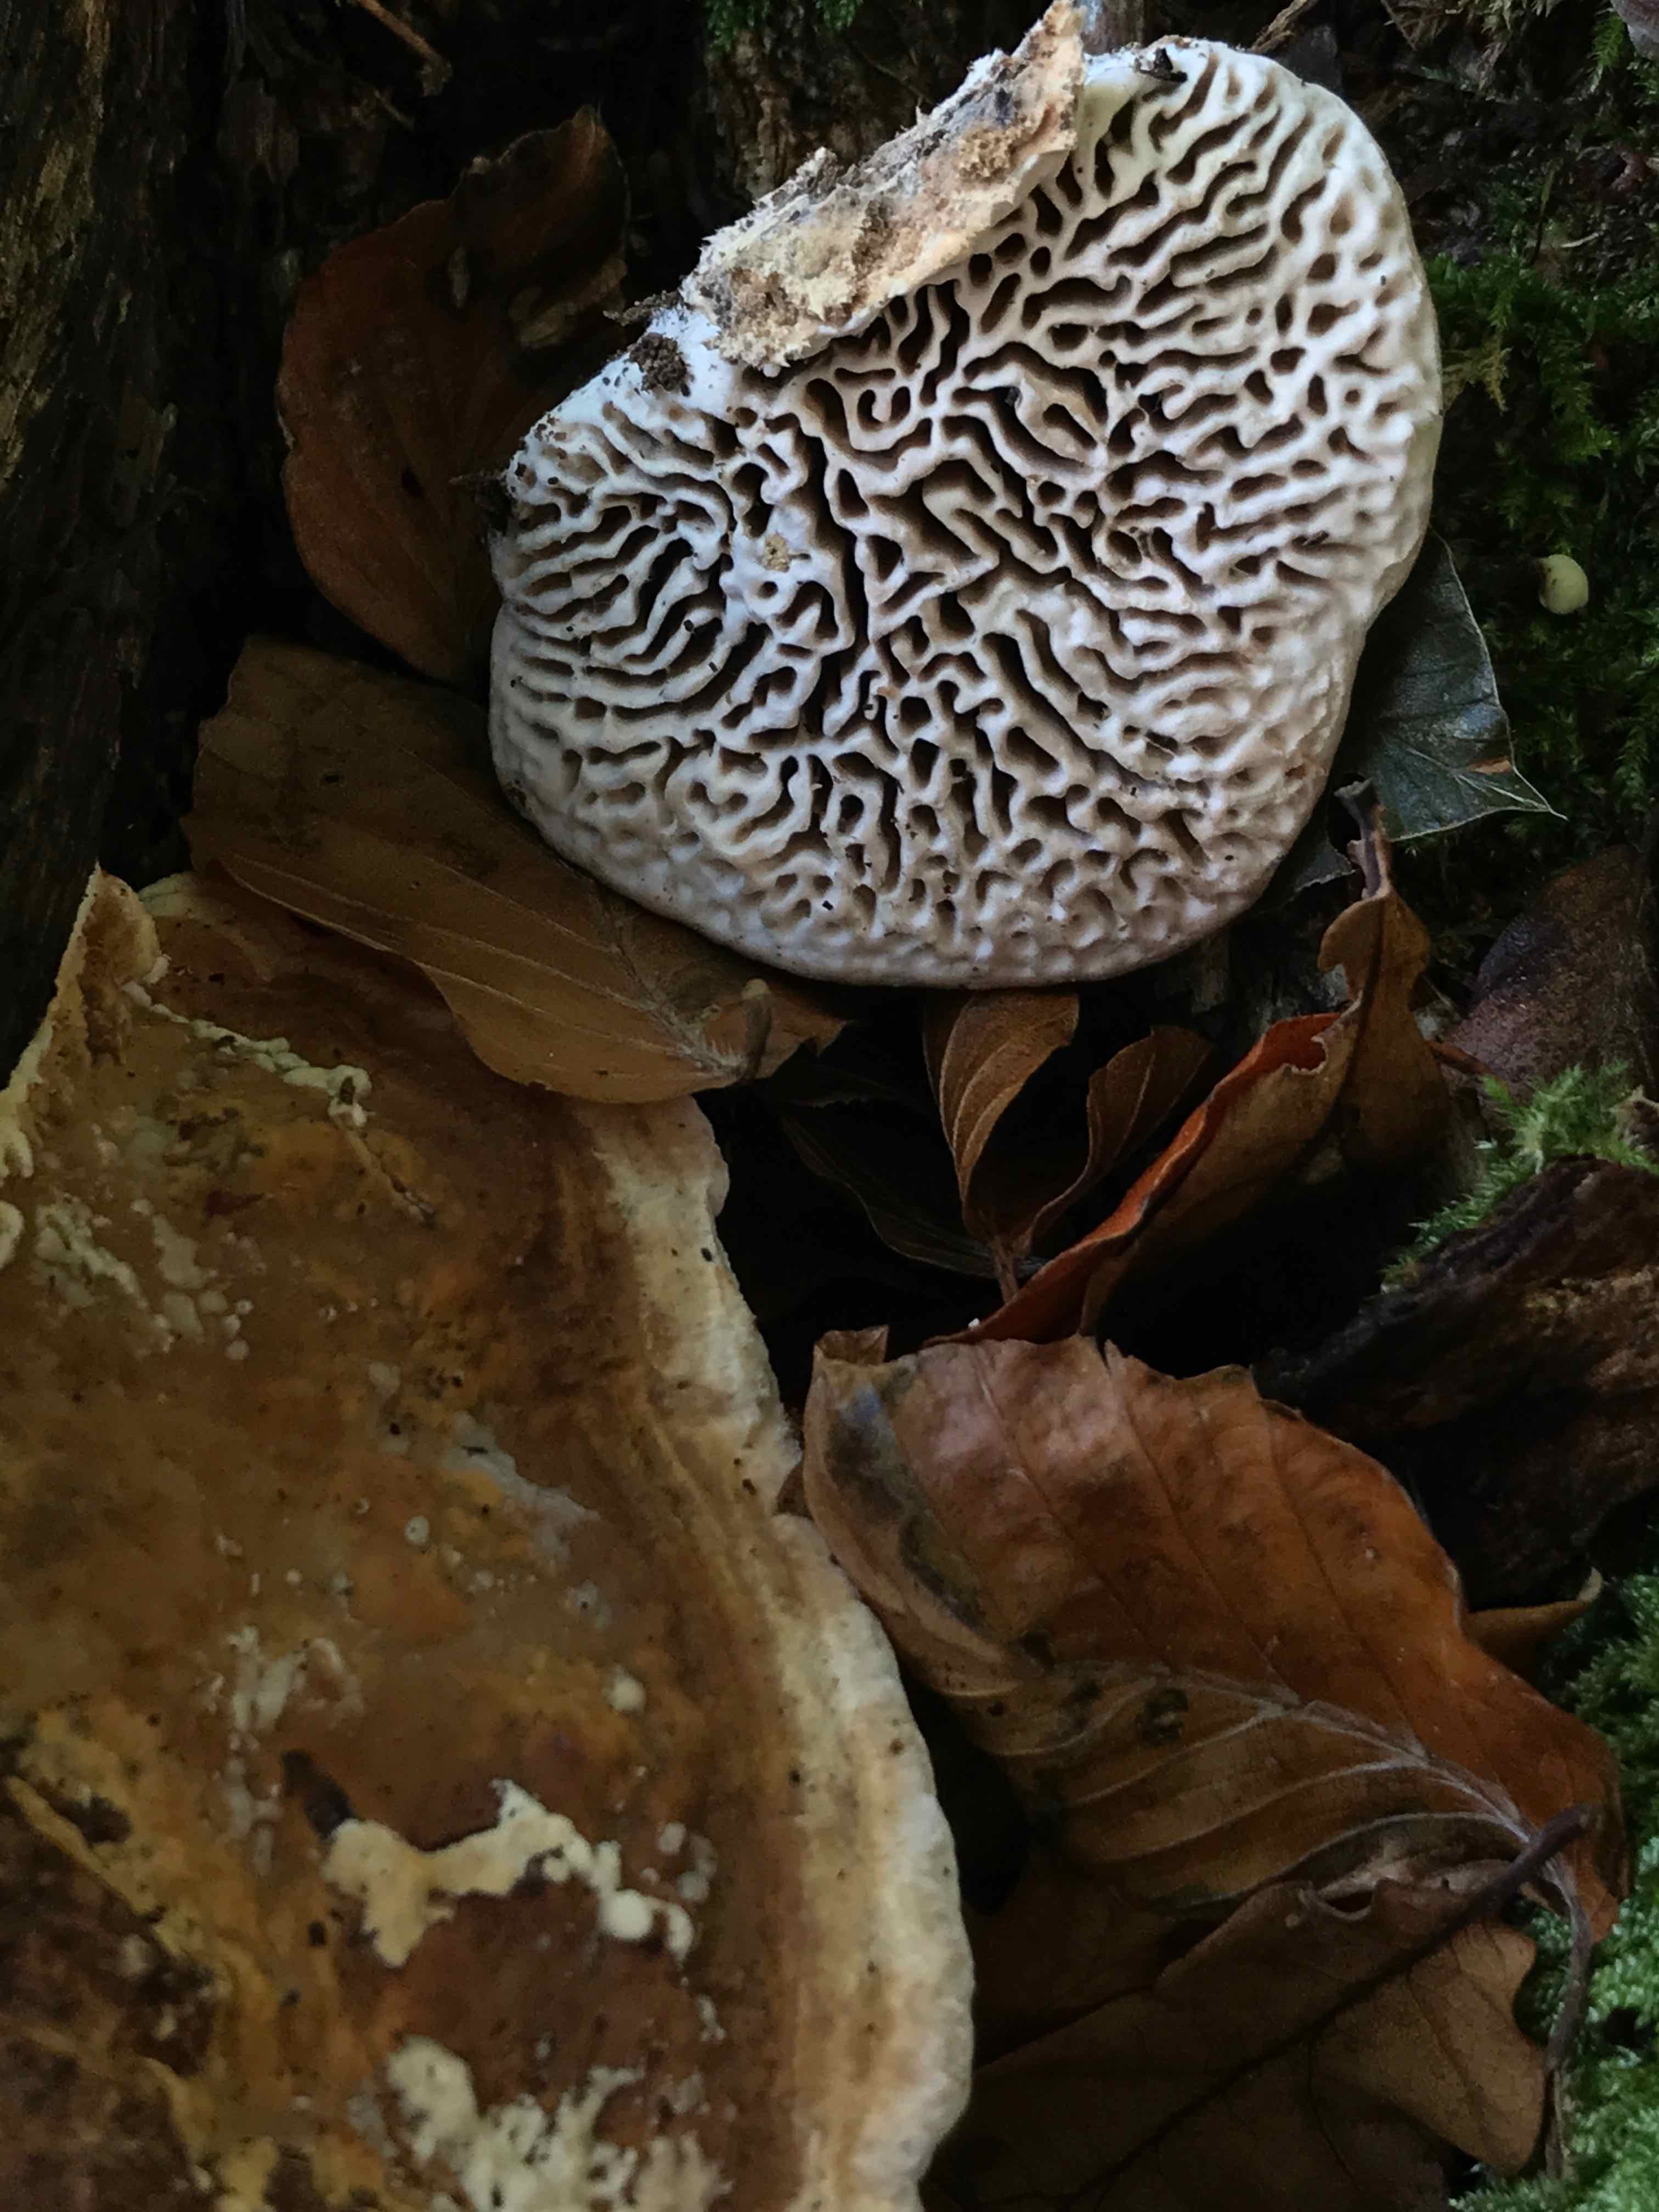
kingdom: Fungi
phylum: Basidiomycota
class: Agaricomycetes
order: Polyporales
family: Fomitopsidaceae
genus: Daedalea
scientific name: Daedalea quercina
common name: ege-labyrintsvamp
